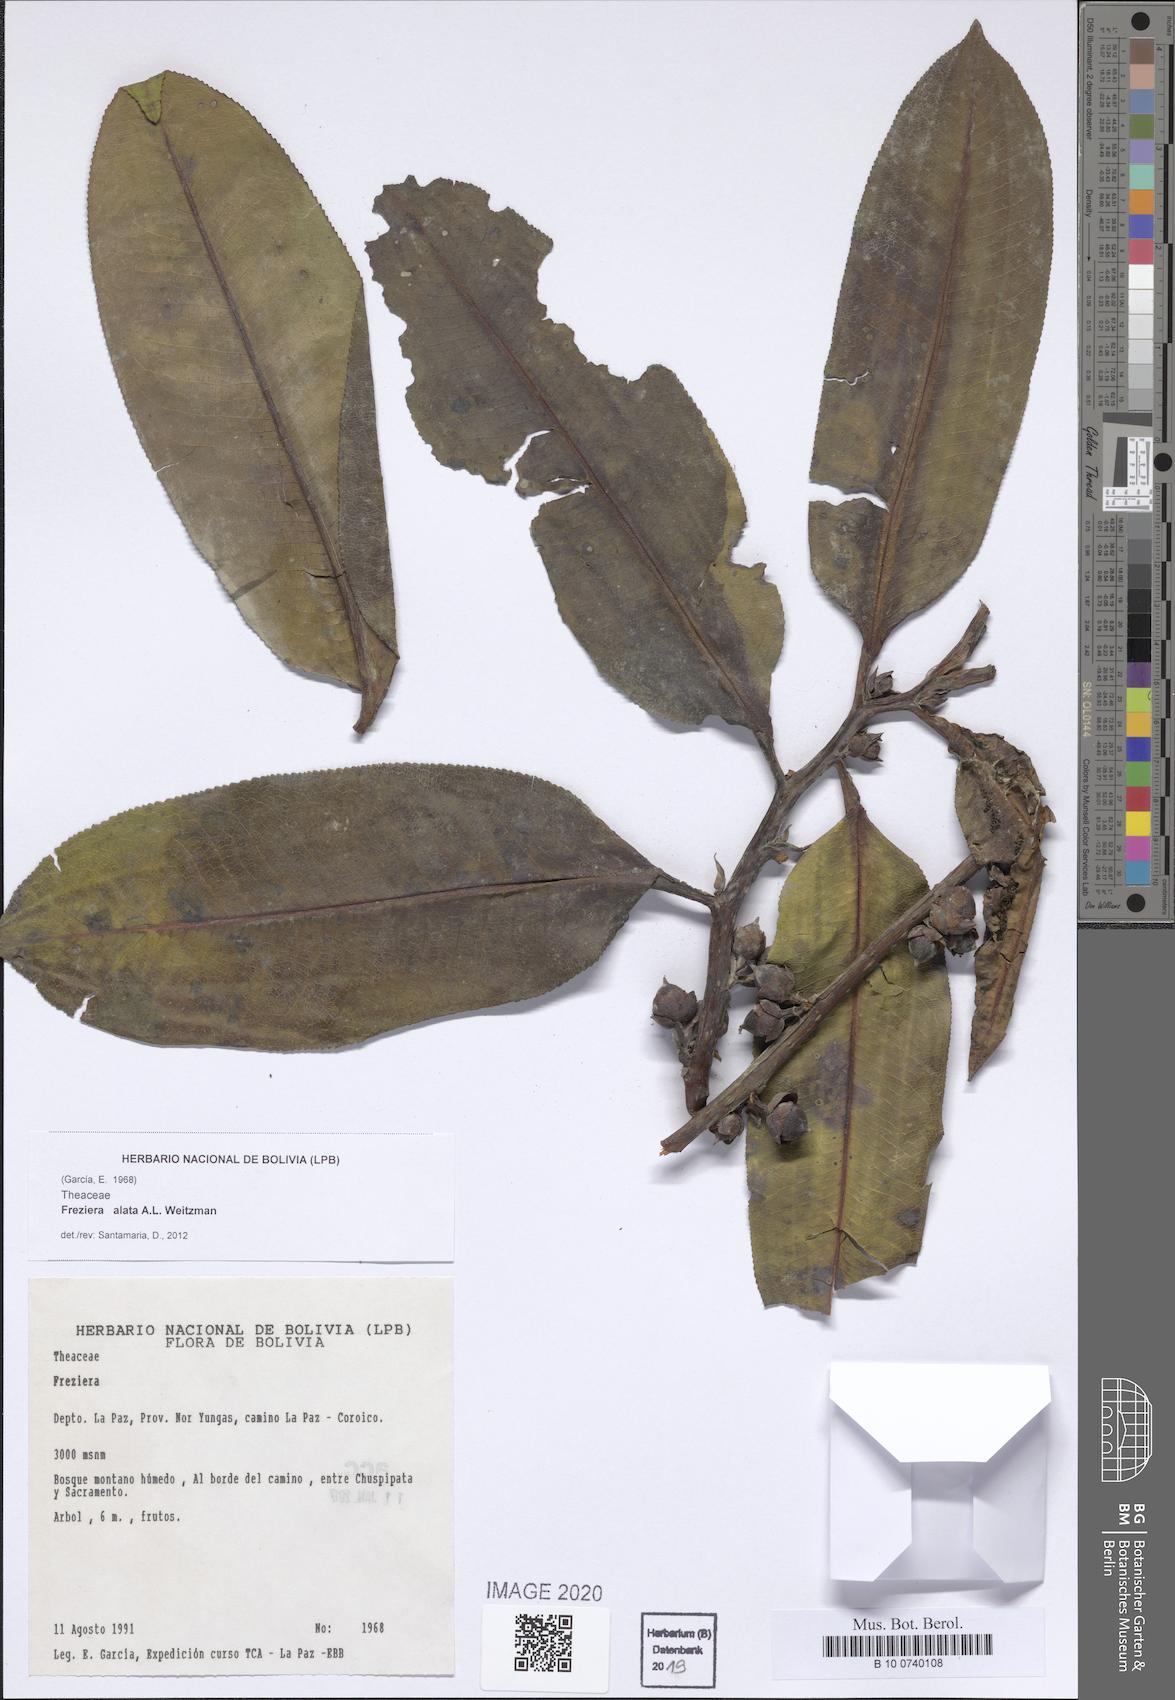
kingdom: Plantae
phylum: Tracheophyta
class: Magnoliopsida
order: Ericales
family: Pentaphylacaceae
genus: Freziera
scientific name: Freziera alata
